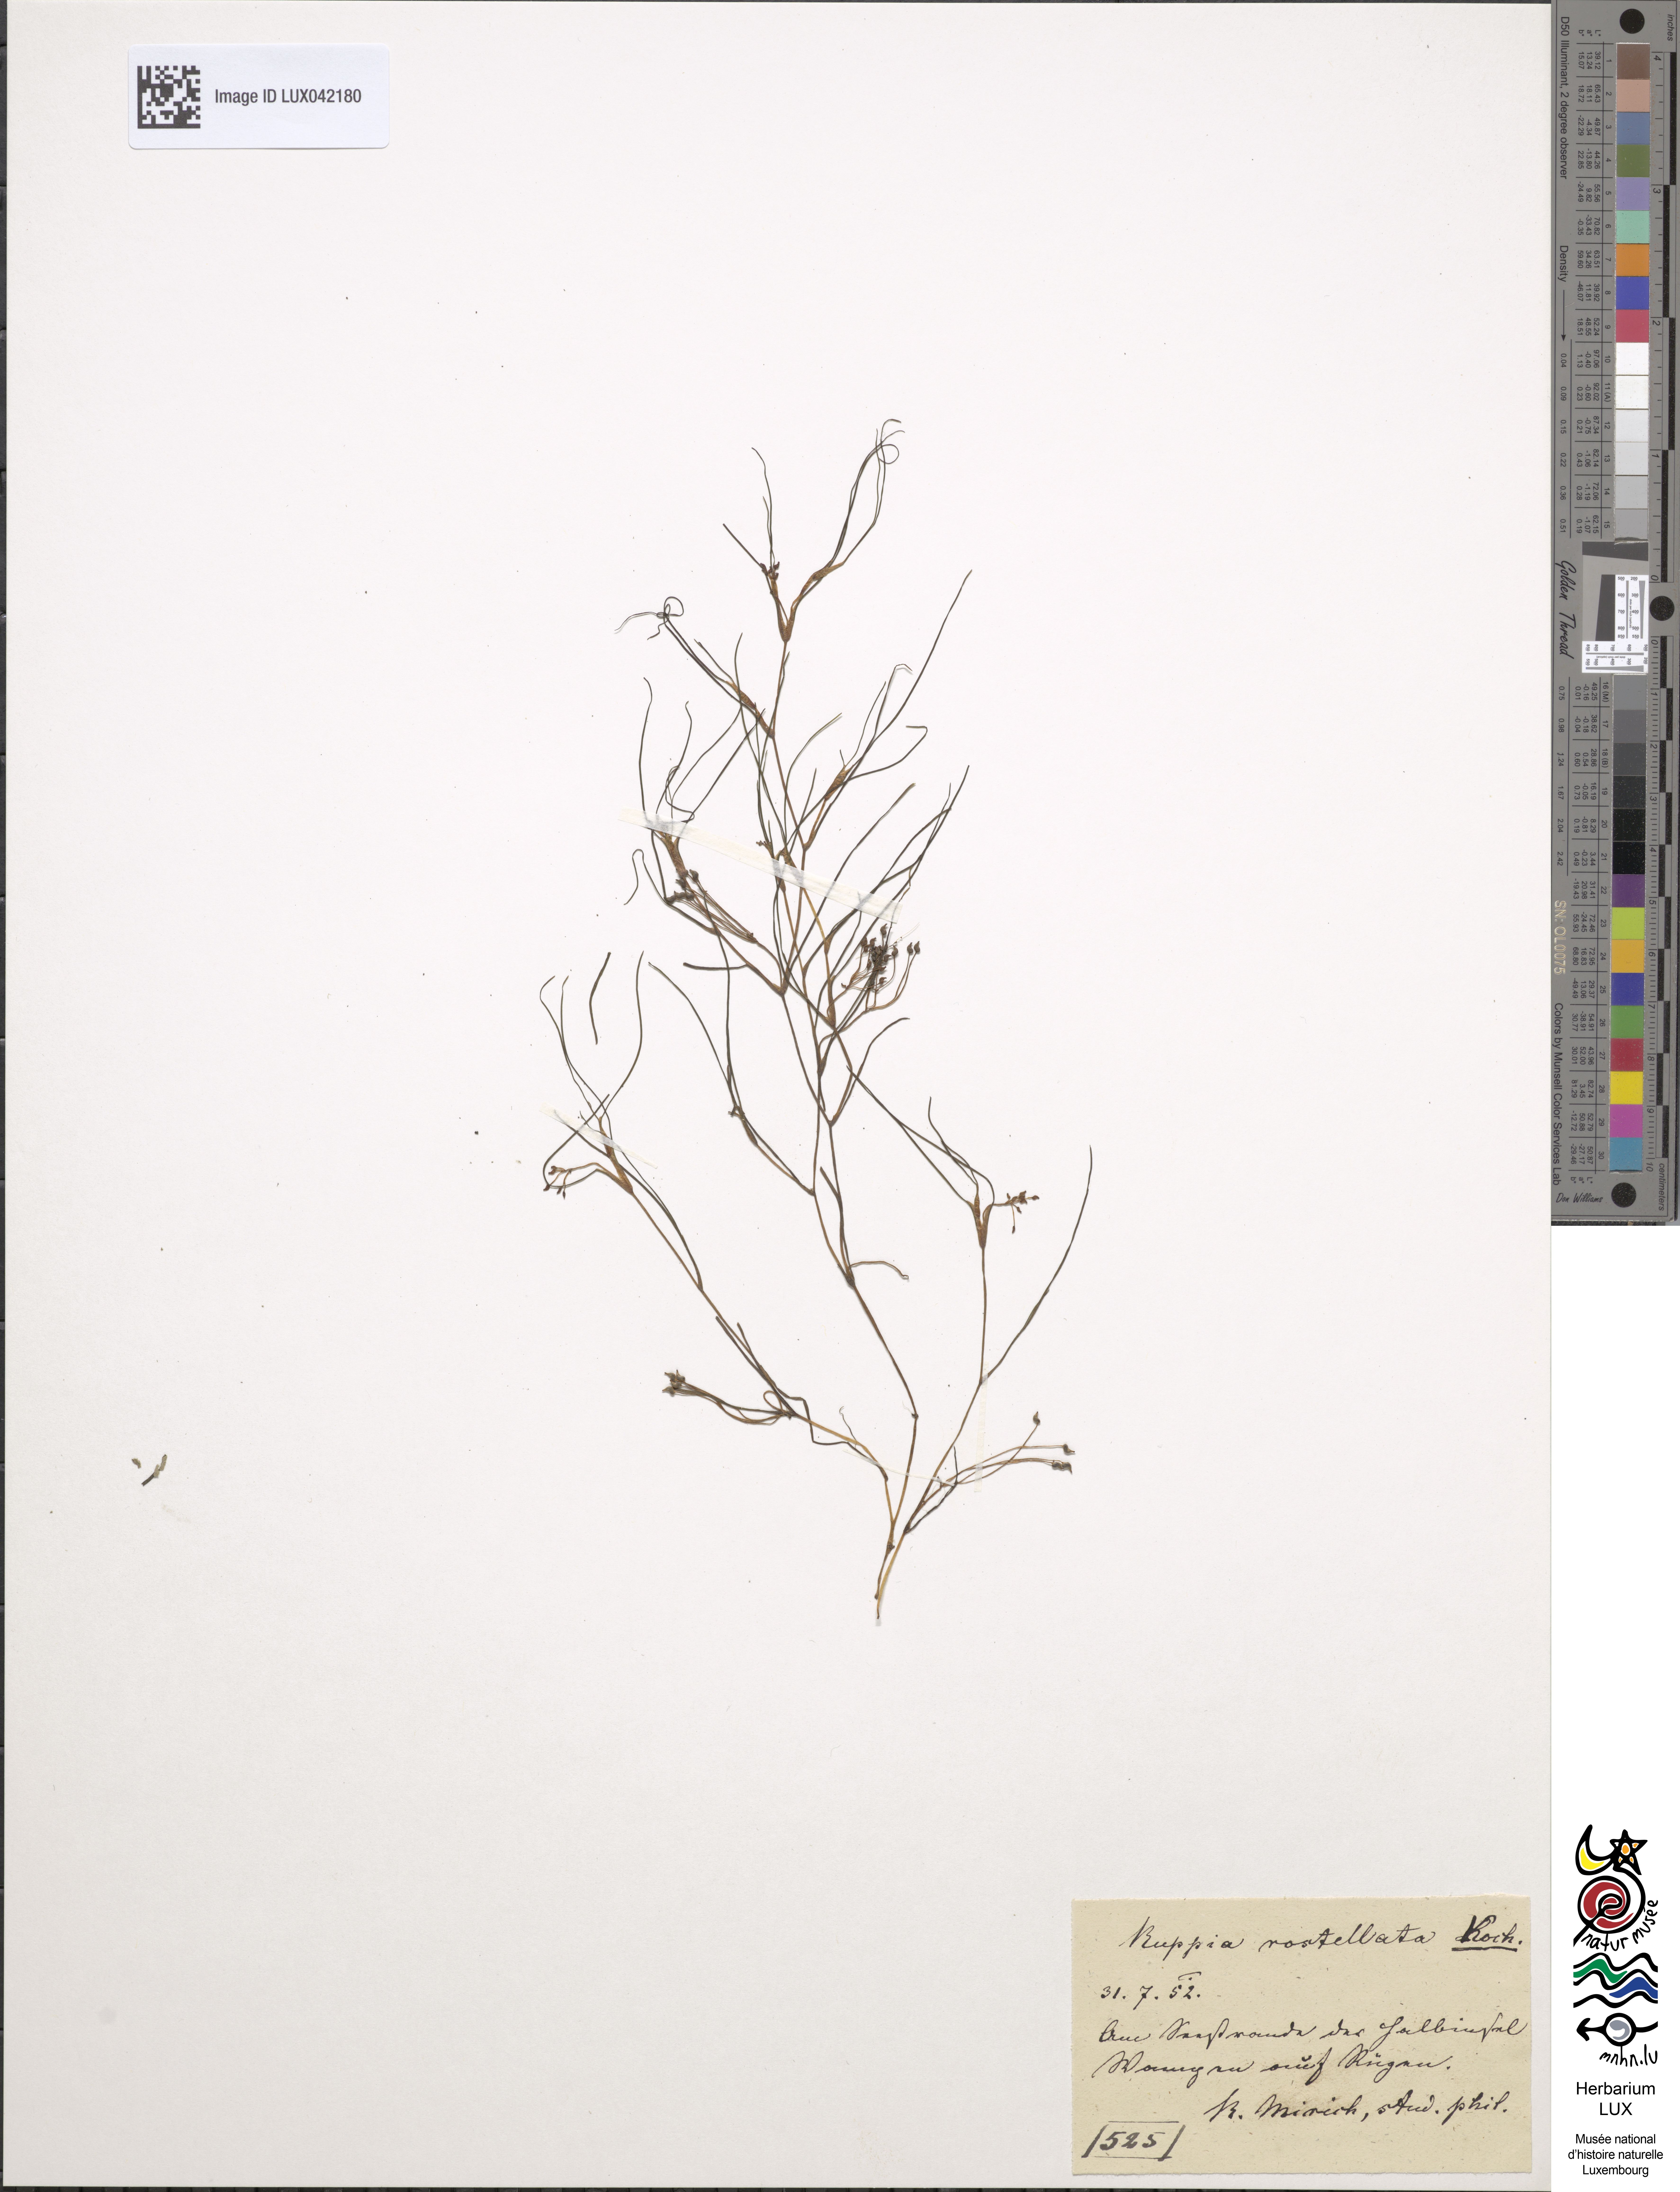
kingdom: Plantae
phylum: Tracheophyta
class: Liliopsida
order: Alismatales
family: Ruppiaceae
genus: Ruppia
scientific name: Ruppia maritima
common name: Beaked tasselweed
